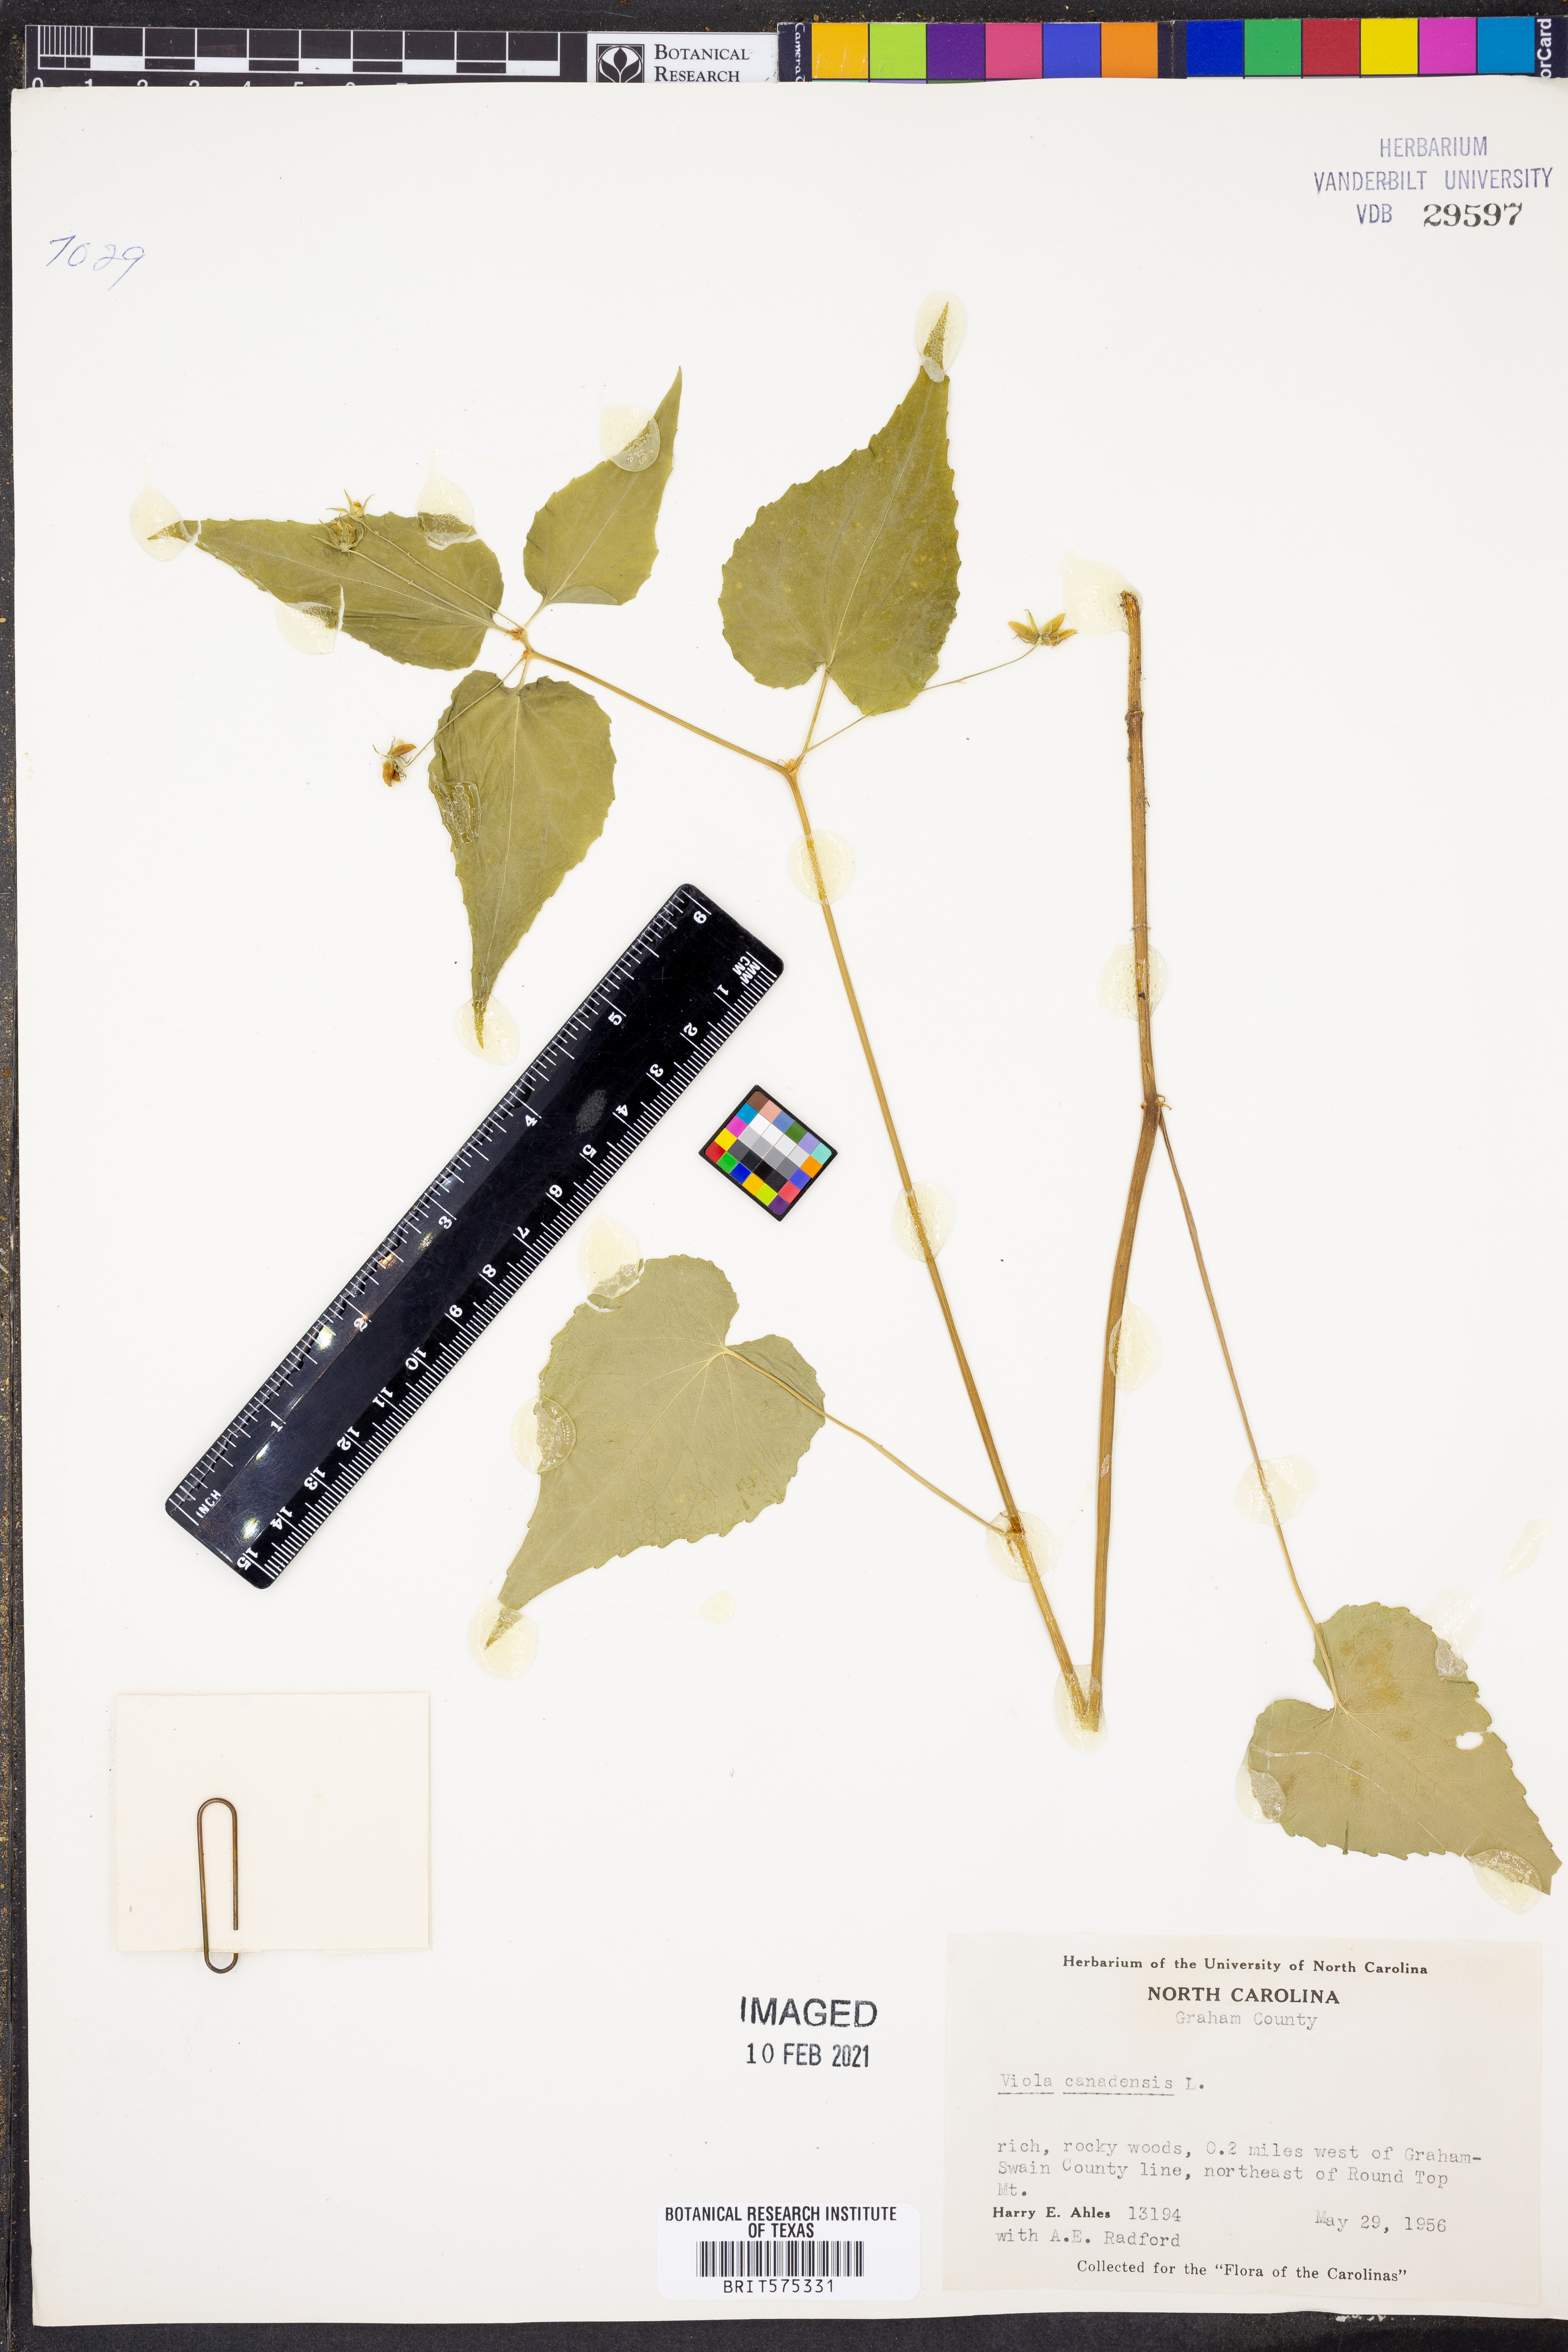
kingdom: Plantae
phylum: Tracheophyta
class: Magnoliopsida
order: Malpighiales
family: Violaceae
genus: Viola
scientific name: Viola canadensis
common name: Canada violet
